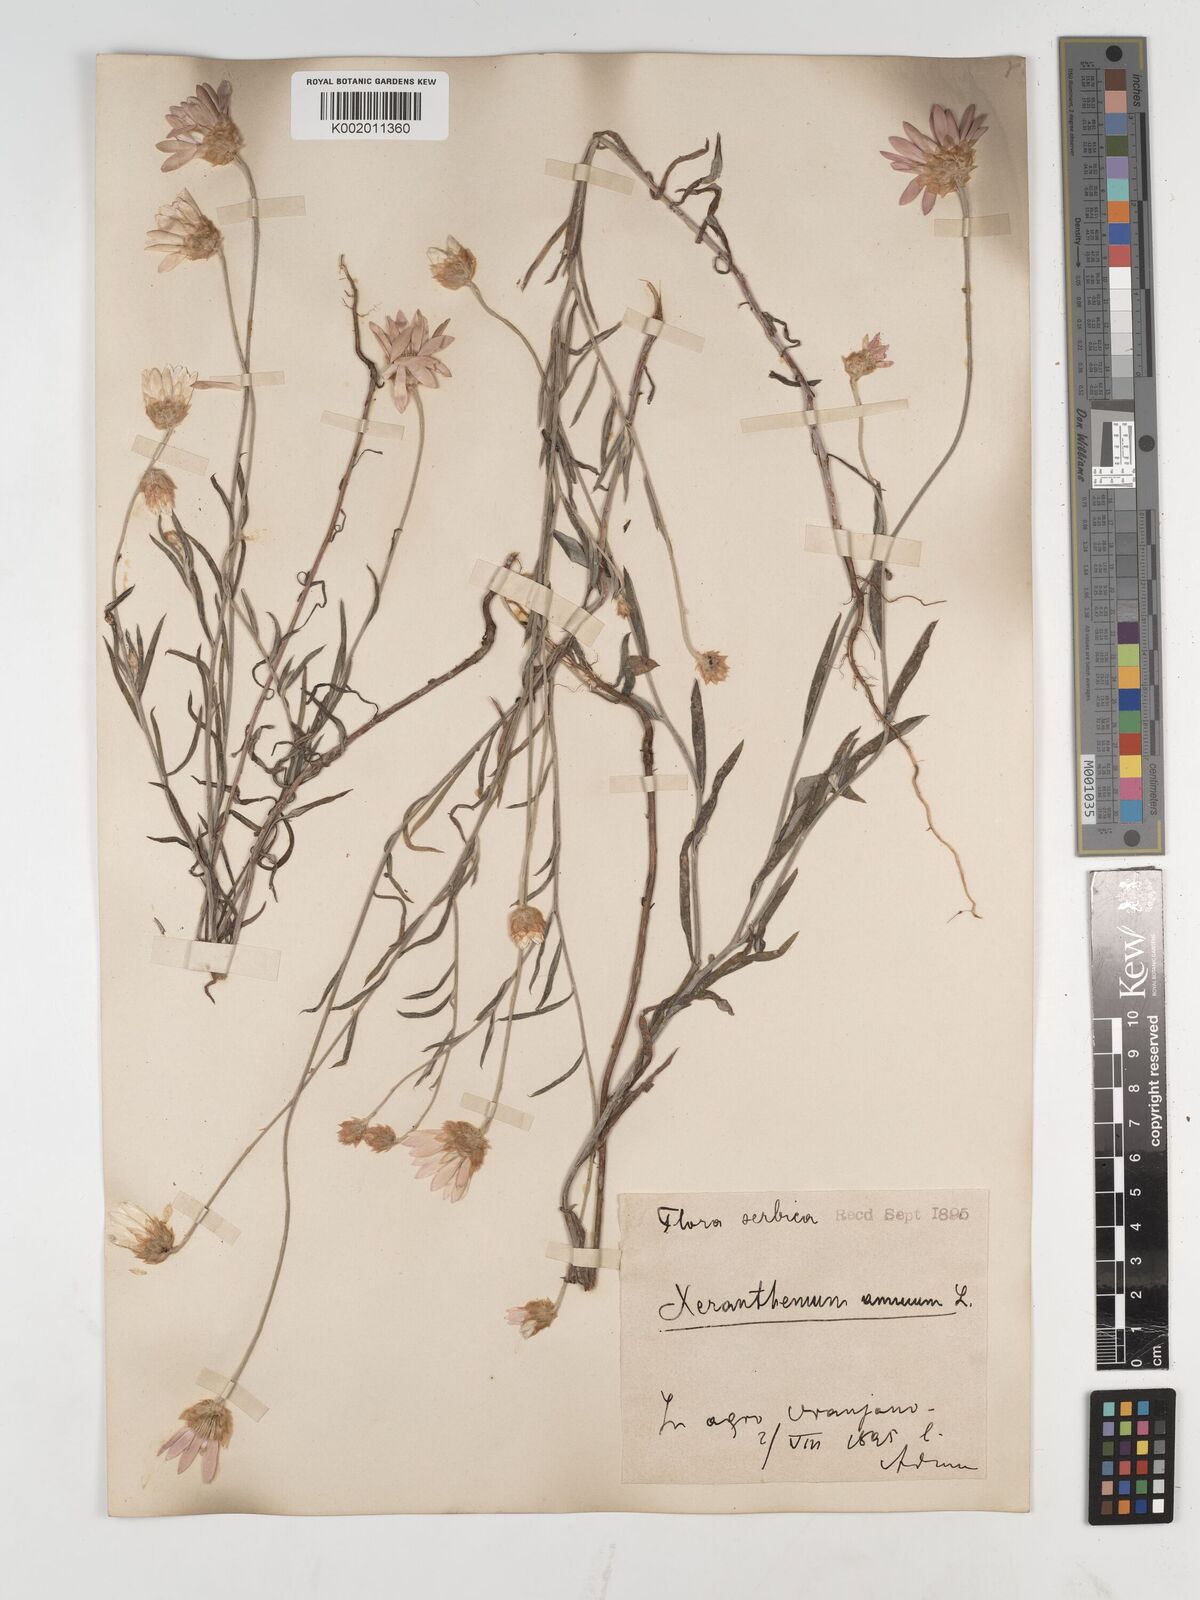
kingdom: Plantae
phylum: Tracheophyta
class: Magnoliopsida
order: Asterales
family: Asteraceae
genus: Xeranthemum
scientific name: Xeranthemum annuum
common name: Immortelle
